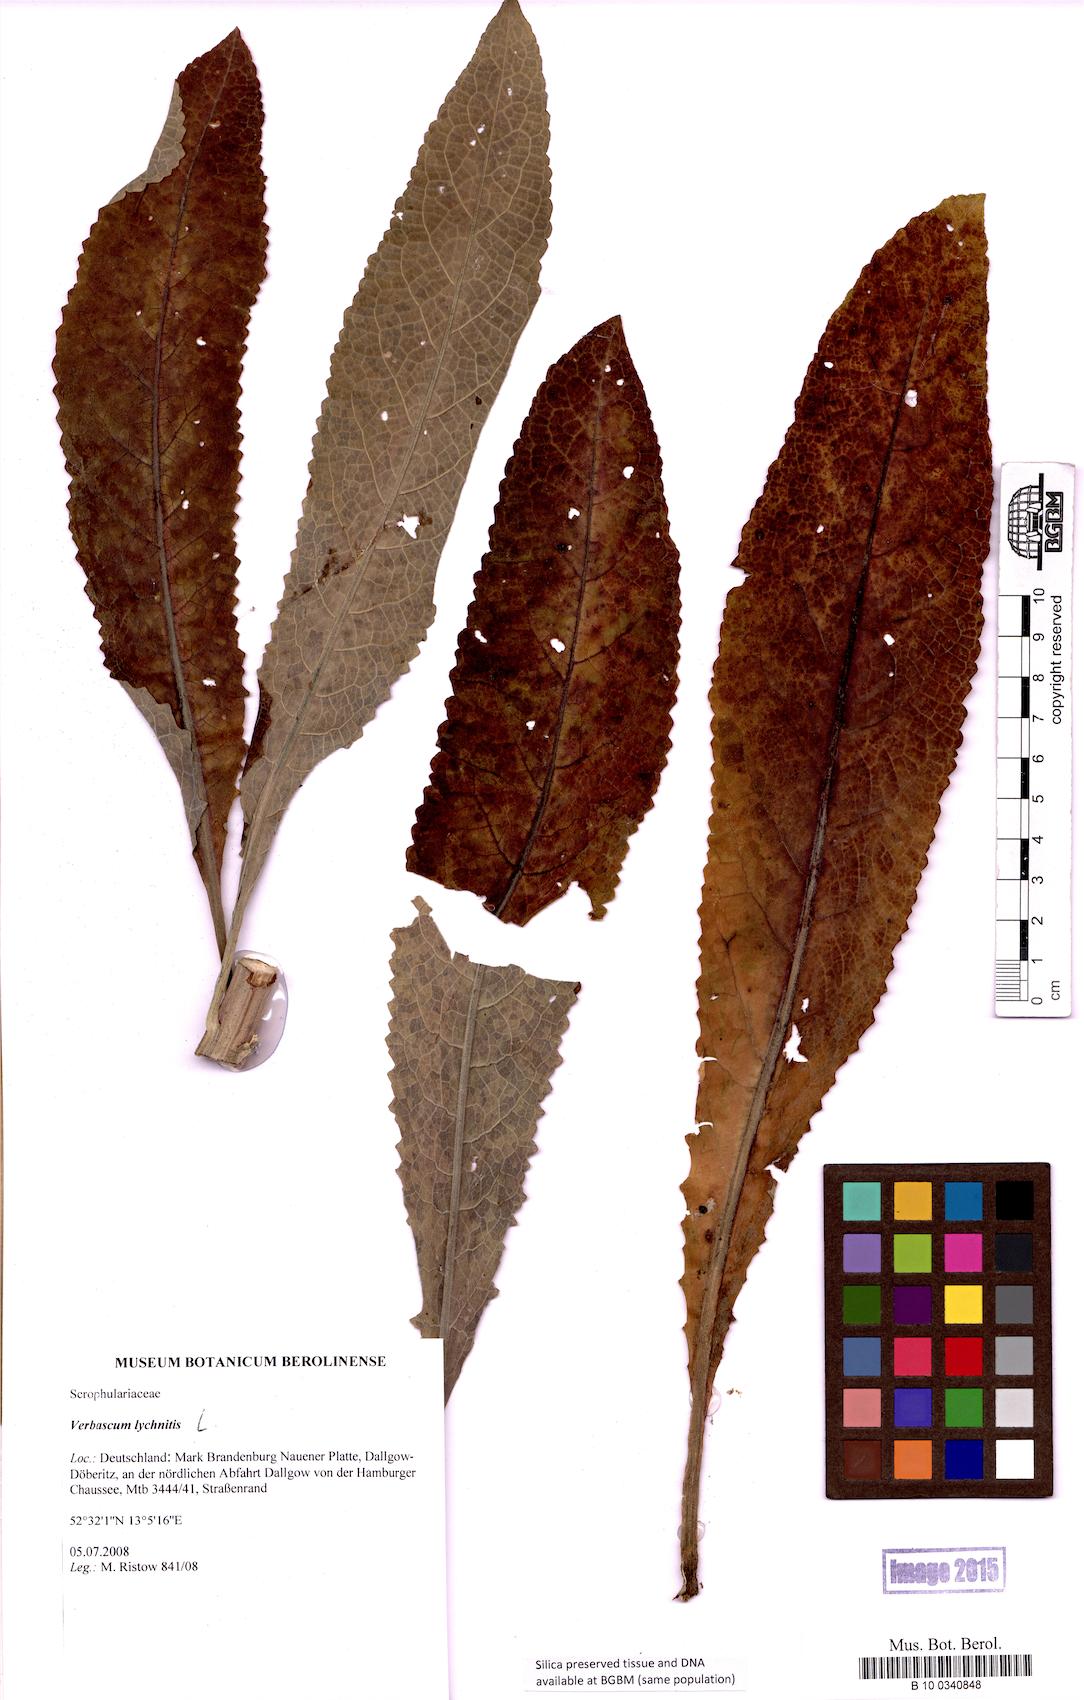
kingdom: Plantae
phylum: Tracheophyta
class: Magnoliopsida
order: Lamiales
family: Scrophulariaceae
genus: Verbascum
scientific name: Verbascum lychnitis
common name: White mullein
